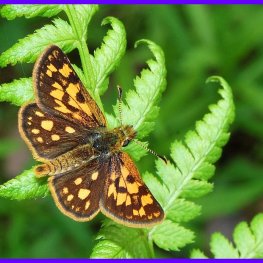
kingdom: Animalia
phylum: Arthropoda
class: Insecta
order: Lepidoptera
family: Hesperiidae
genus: Carterocephalus
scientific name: Carterocephalus palaemon
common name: Chequered Skipper
